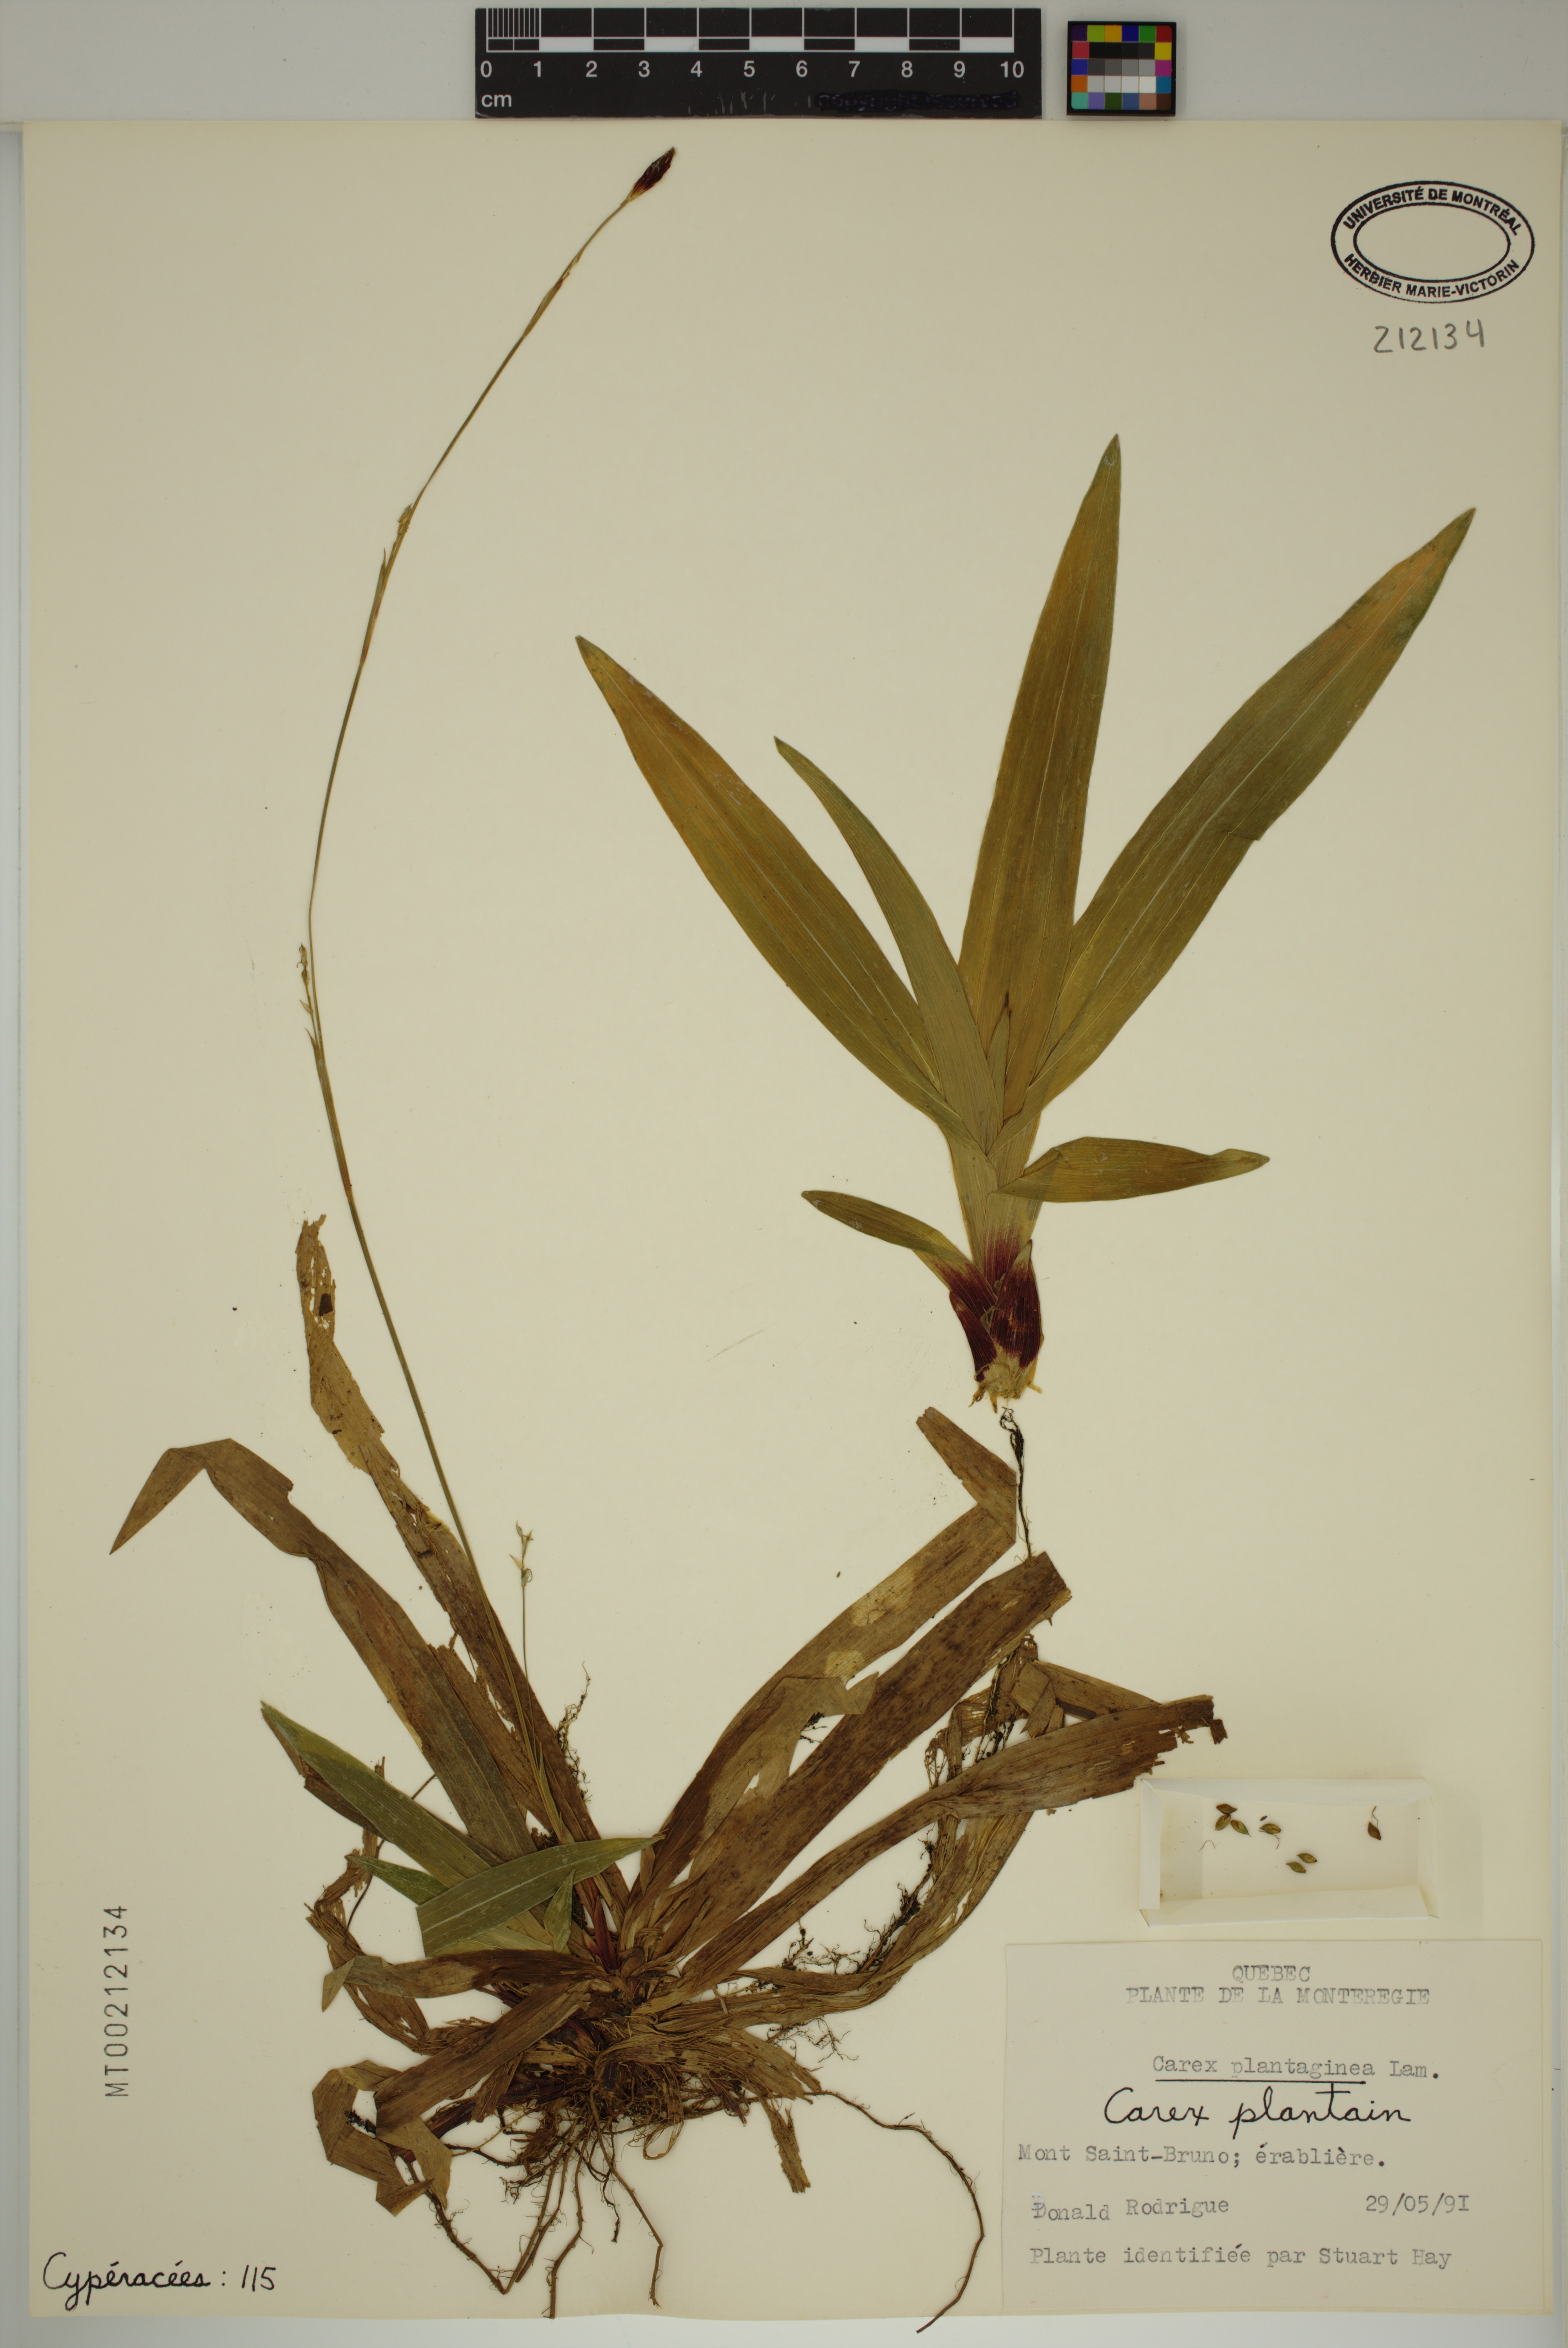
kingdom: Plantae
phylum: Tracheophyta
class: Liliopsida
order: Poales
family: Cyperaceae
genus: Carex
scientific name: Carex plantaginea
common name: Plantain-leaved sedge
